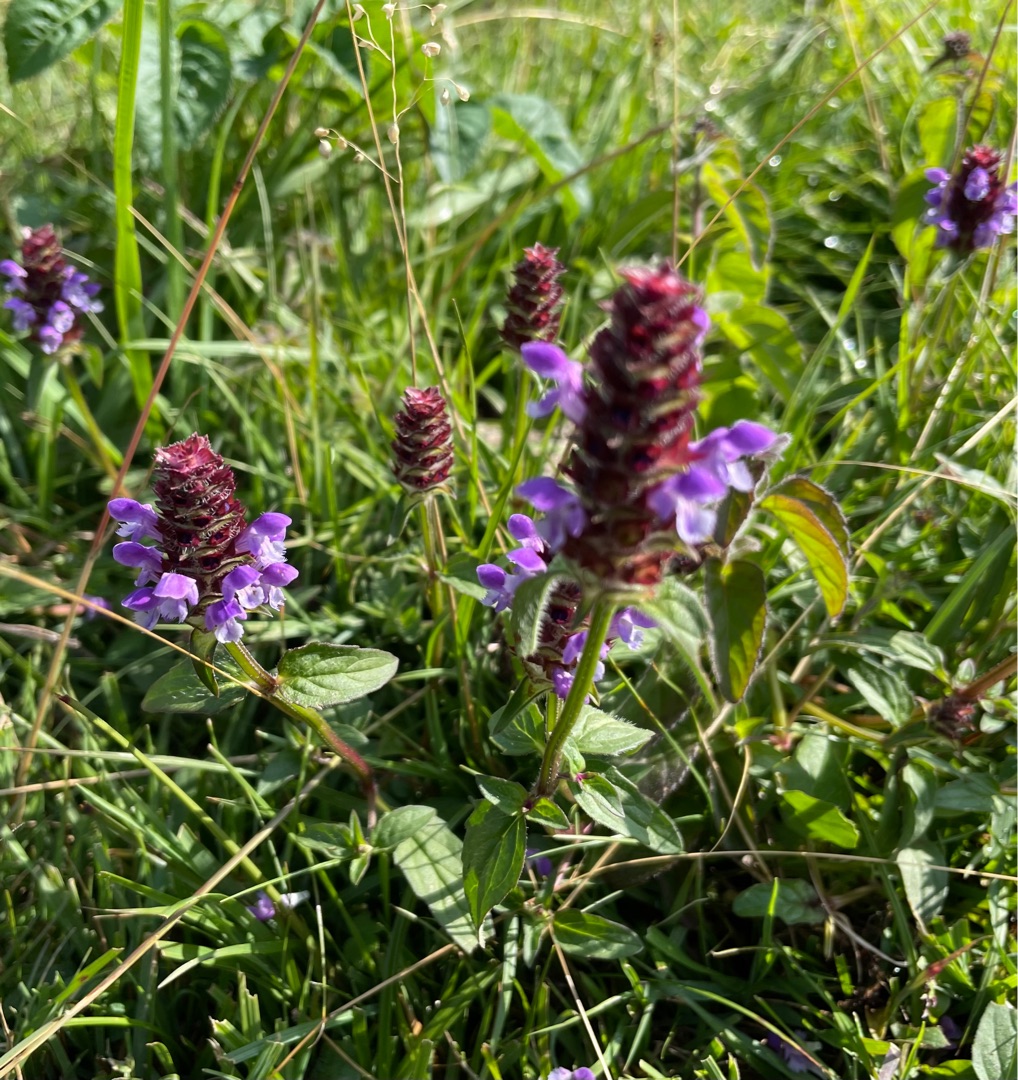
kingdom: Plantae
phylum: Tracheophyta
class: Magnoliopsida
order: Lamiales
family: Lamiaceae
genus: Prunella
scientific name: Prunella vulgaris
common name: Almindelig brunelle
